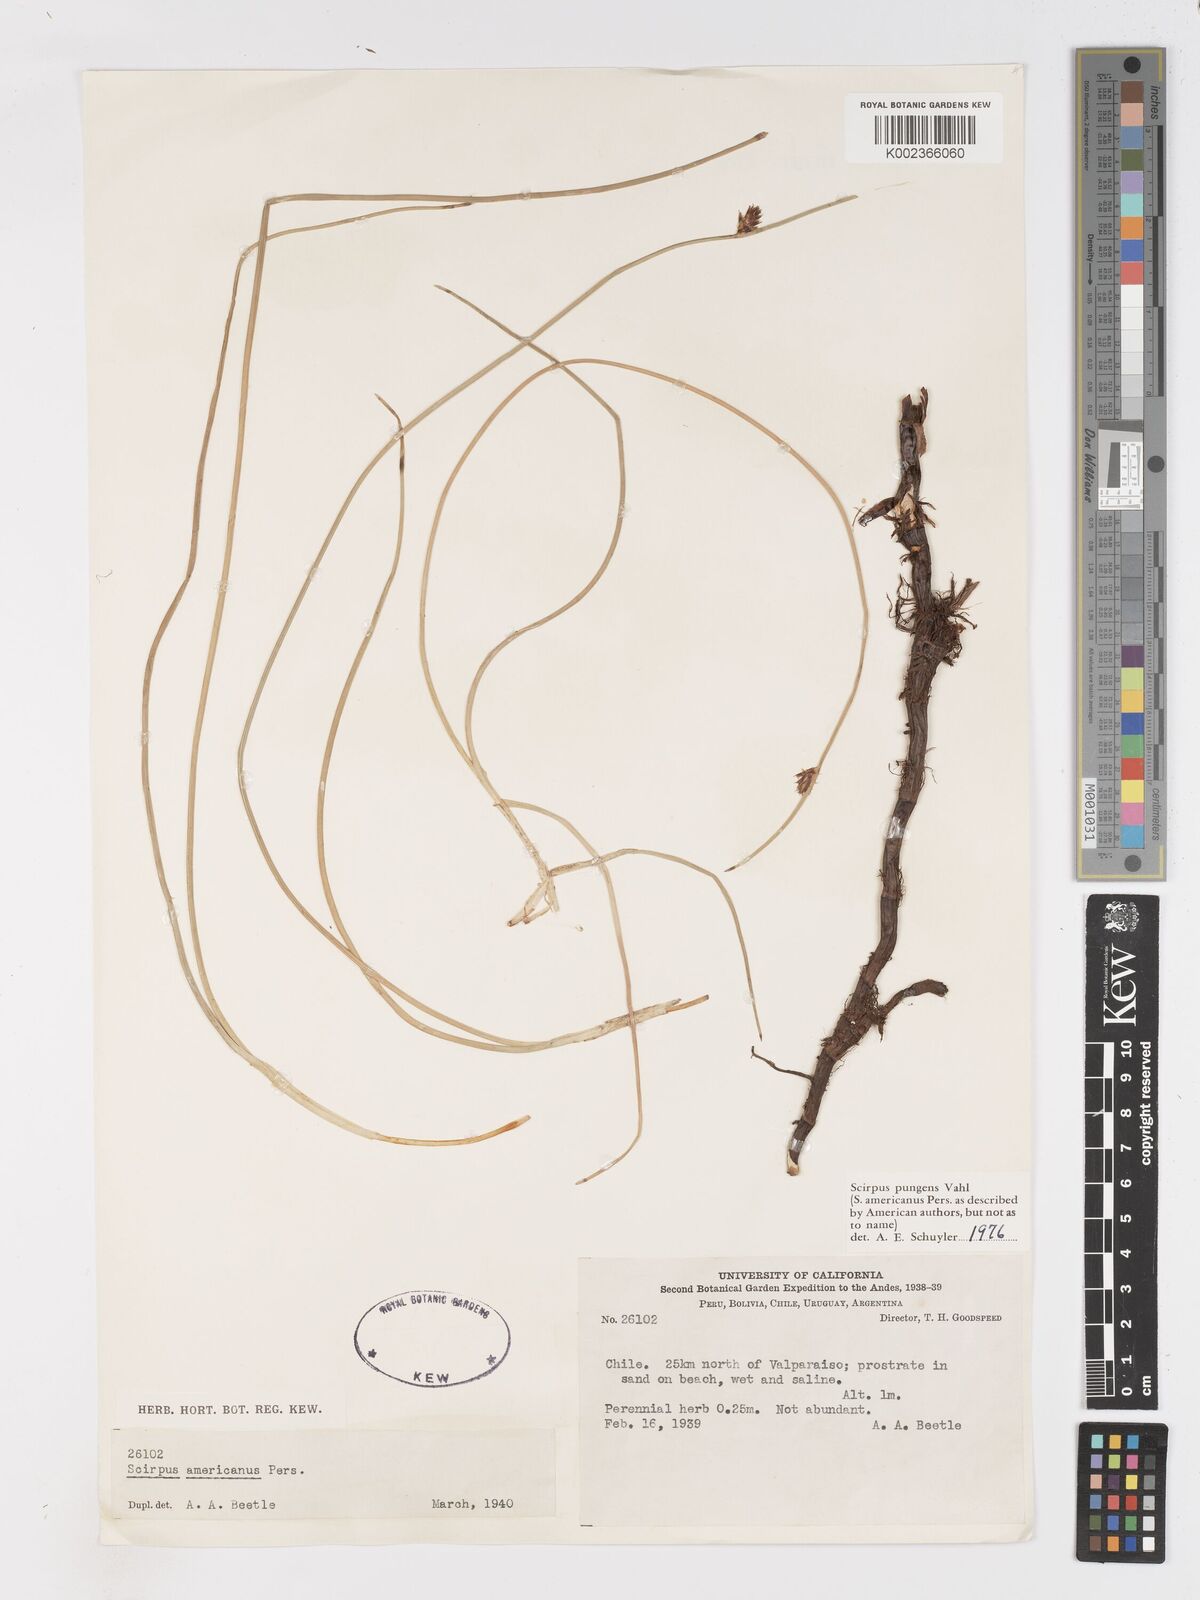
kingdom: Plantae
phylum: Tracheophyta
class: Liliopsida
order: Poales
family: Cyperaceae
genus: Schoenoplectus
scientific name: Schoenoplectus pungens
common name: Sharp club-rush
